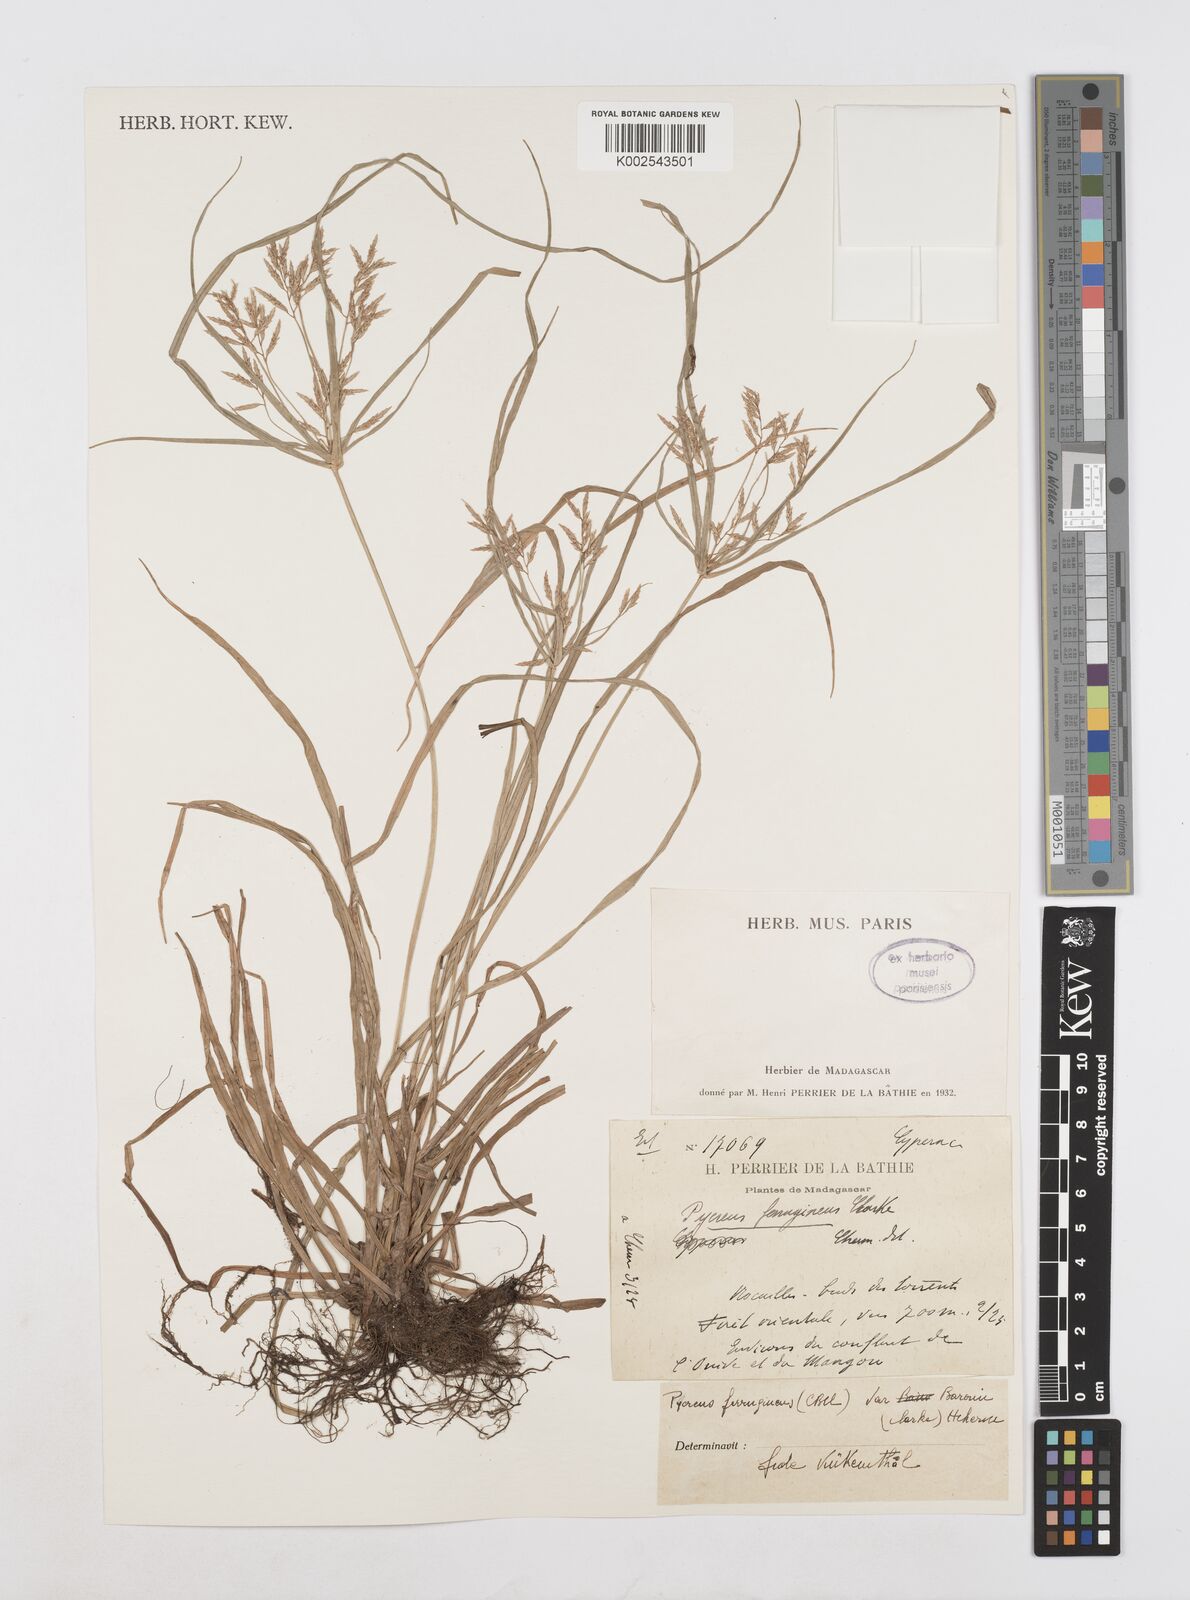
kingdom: Plantae
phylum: Tracheophyta
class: Liliopsida
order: Poales
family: Cyperaceae
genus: Cyperus
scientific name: Cyperus intactus
